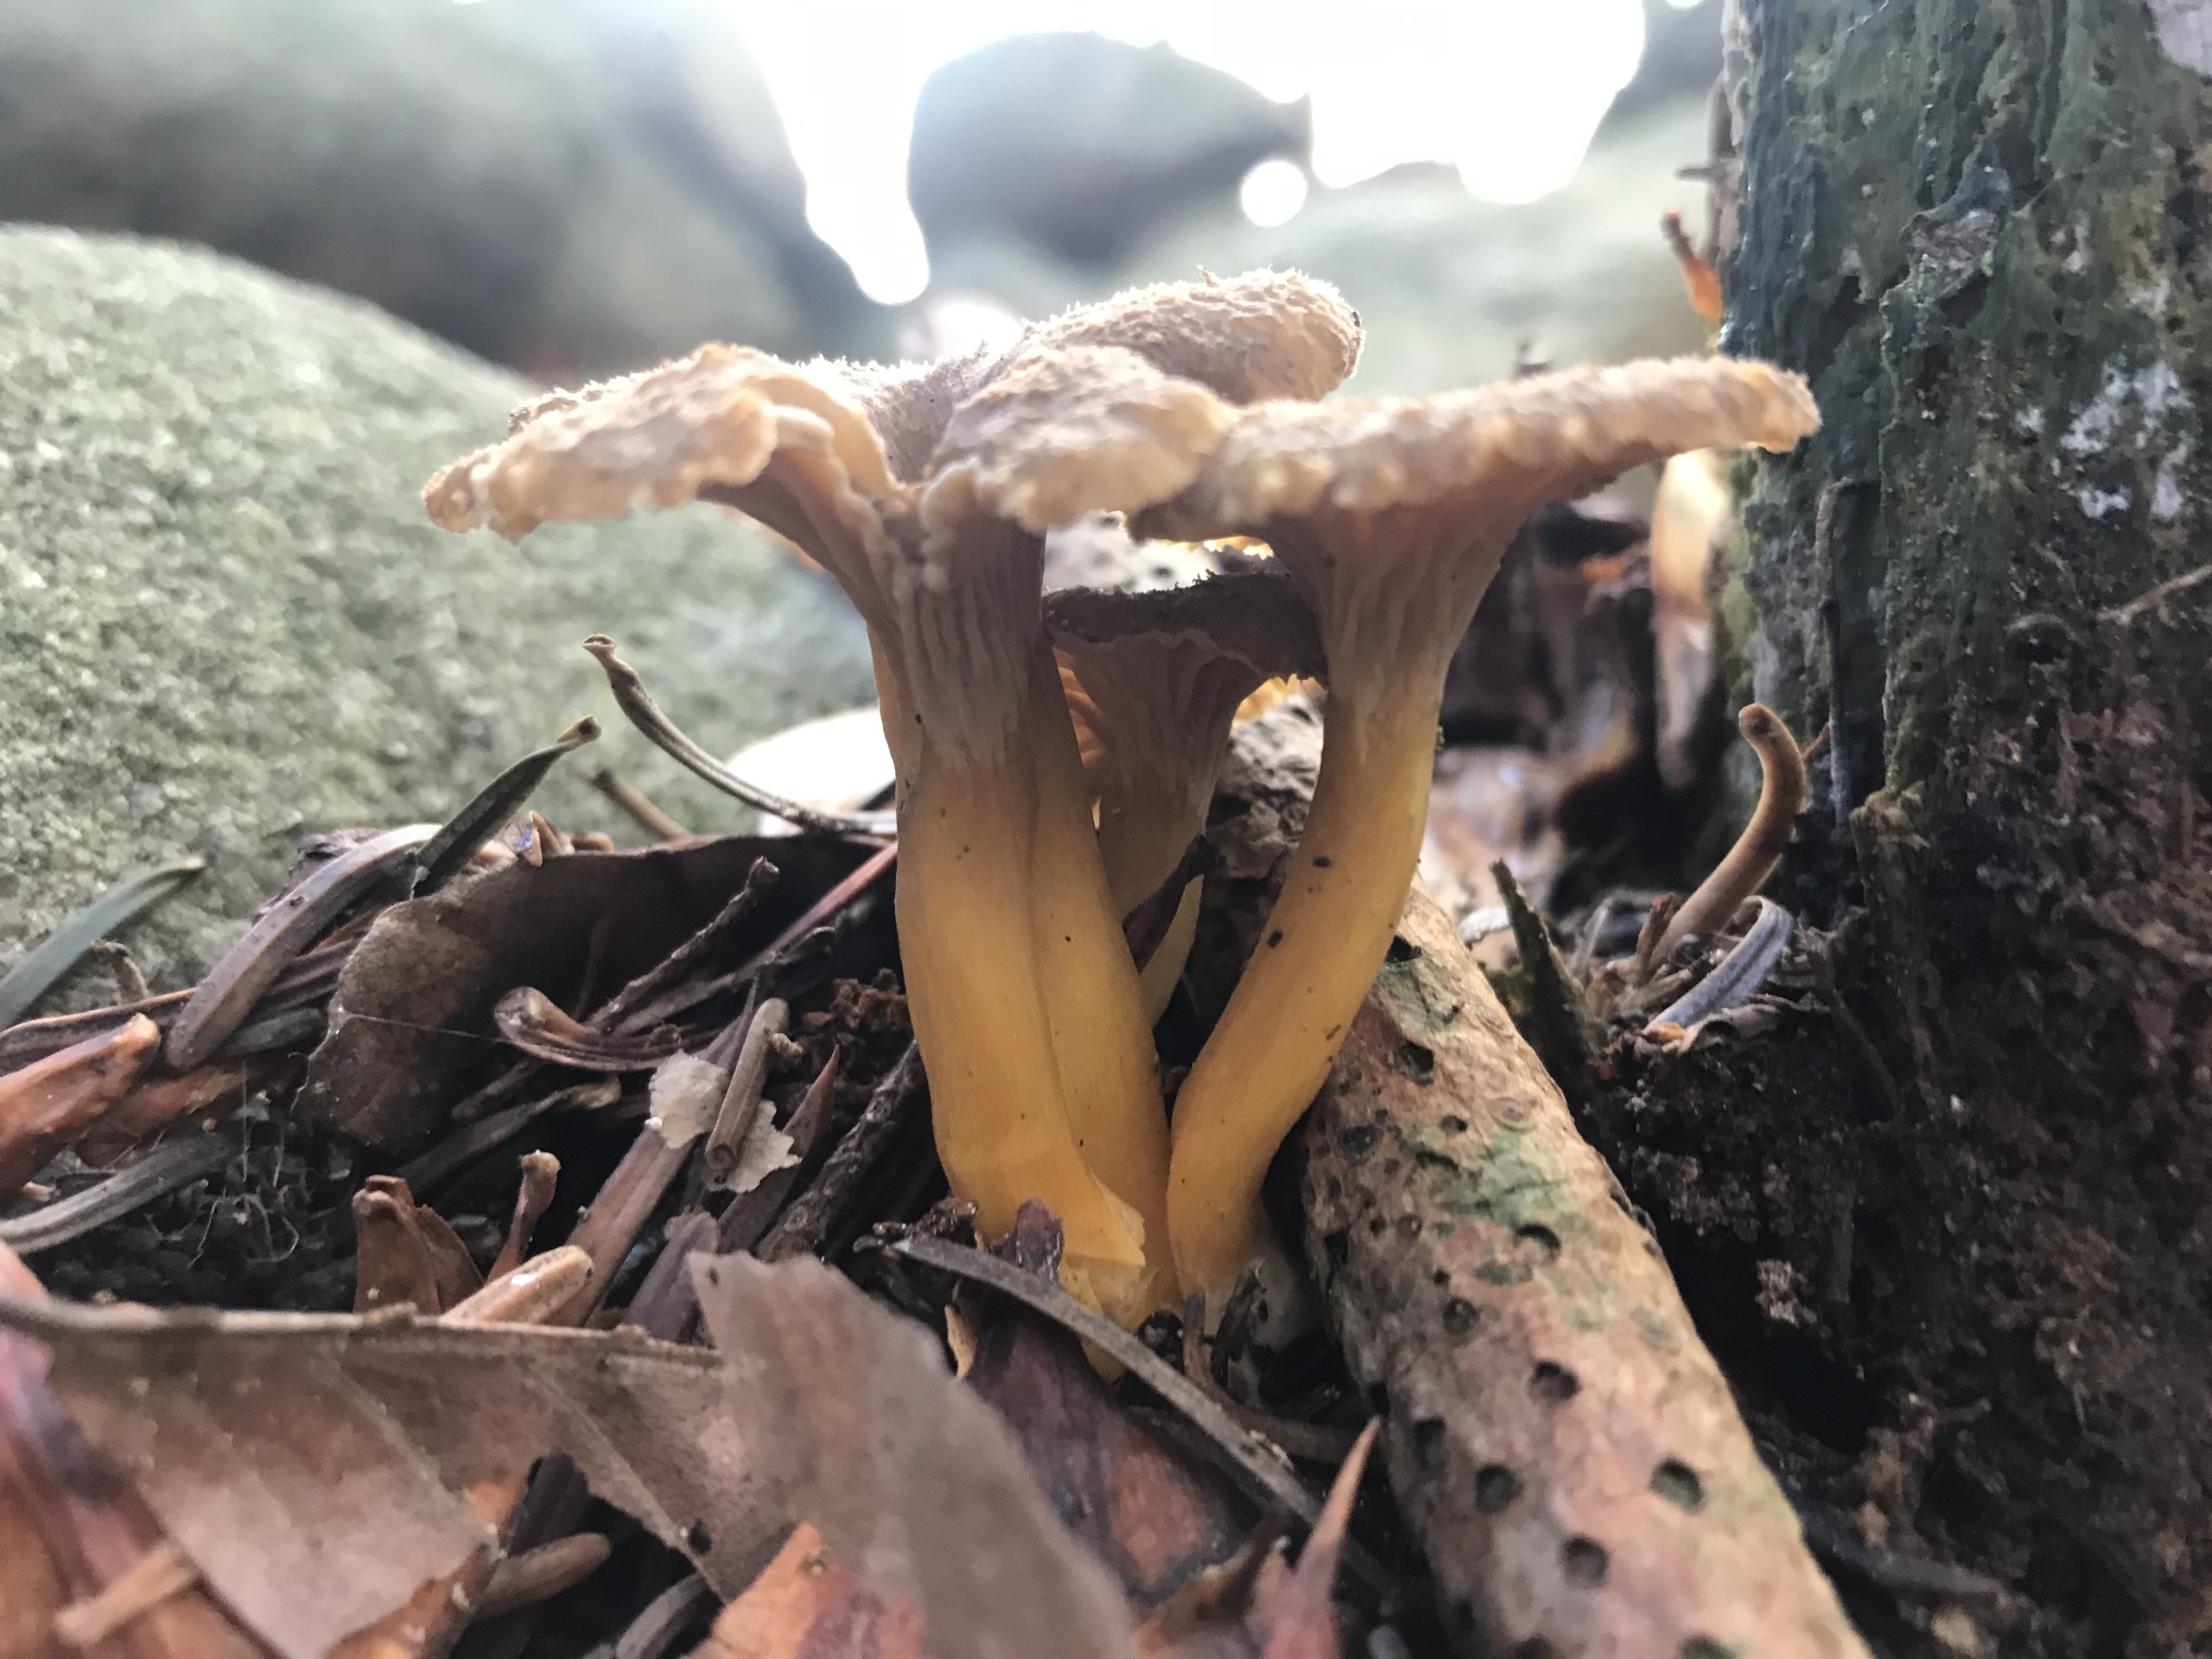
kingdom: Fungi
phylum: Basidiomycota
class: Agaricomycetes
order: Cantharellales
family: Hydnaceae
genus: Craterellus
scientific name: Craterellus tubaeformis
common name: Tragt-kantarel
